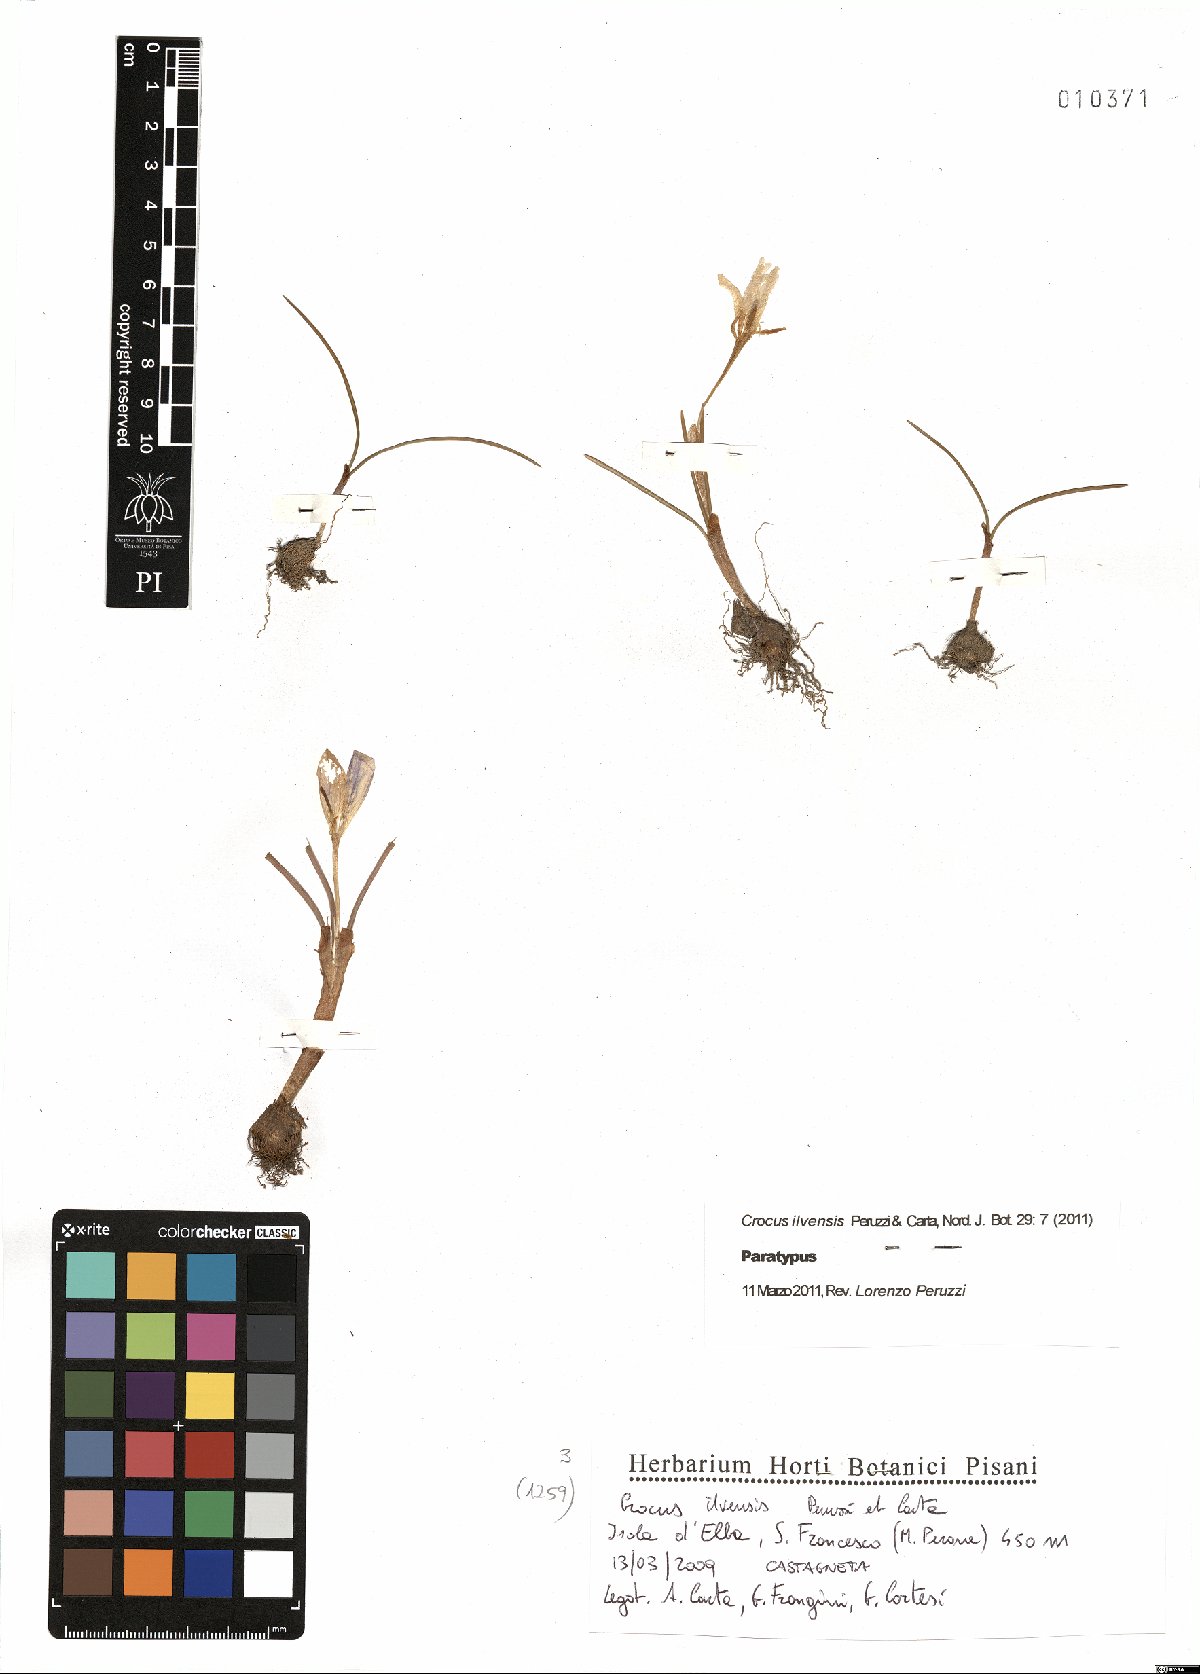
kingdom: Plantae
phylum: Tracheophyta
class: Liliopsida
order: Asparagales
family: Iridaceae
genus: Crocus
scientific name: Crocus ilvensis
